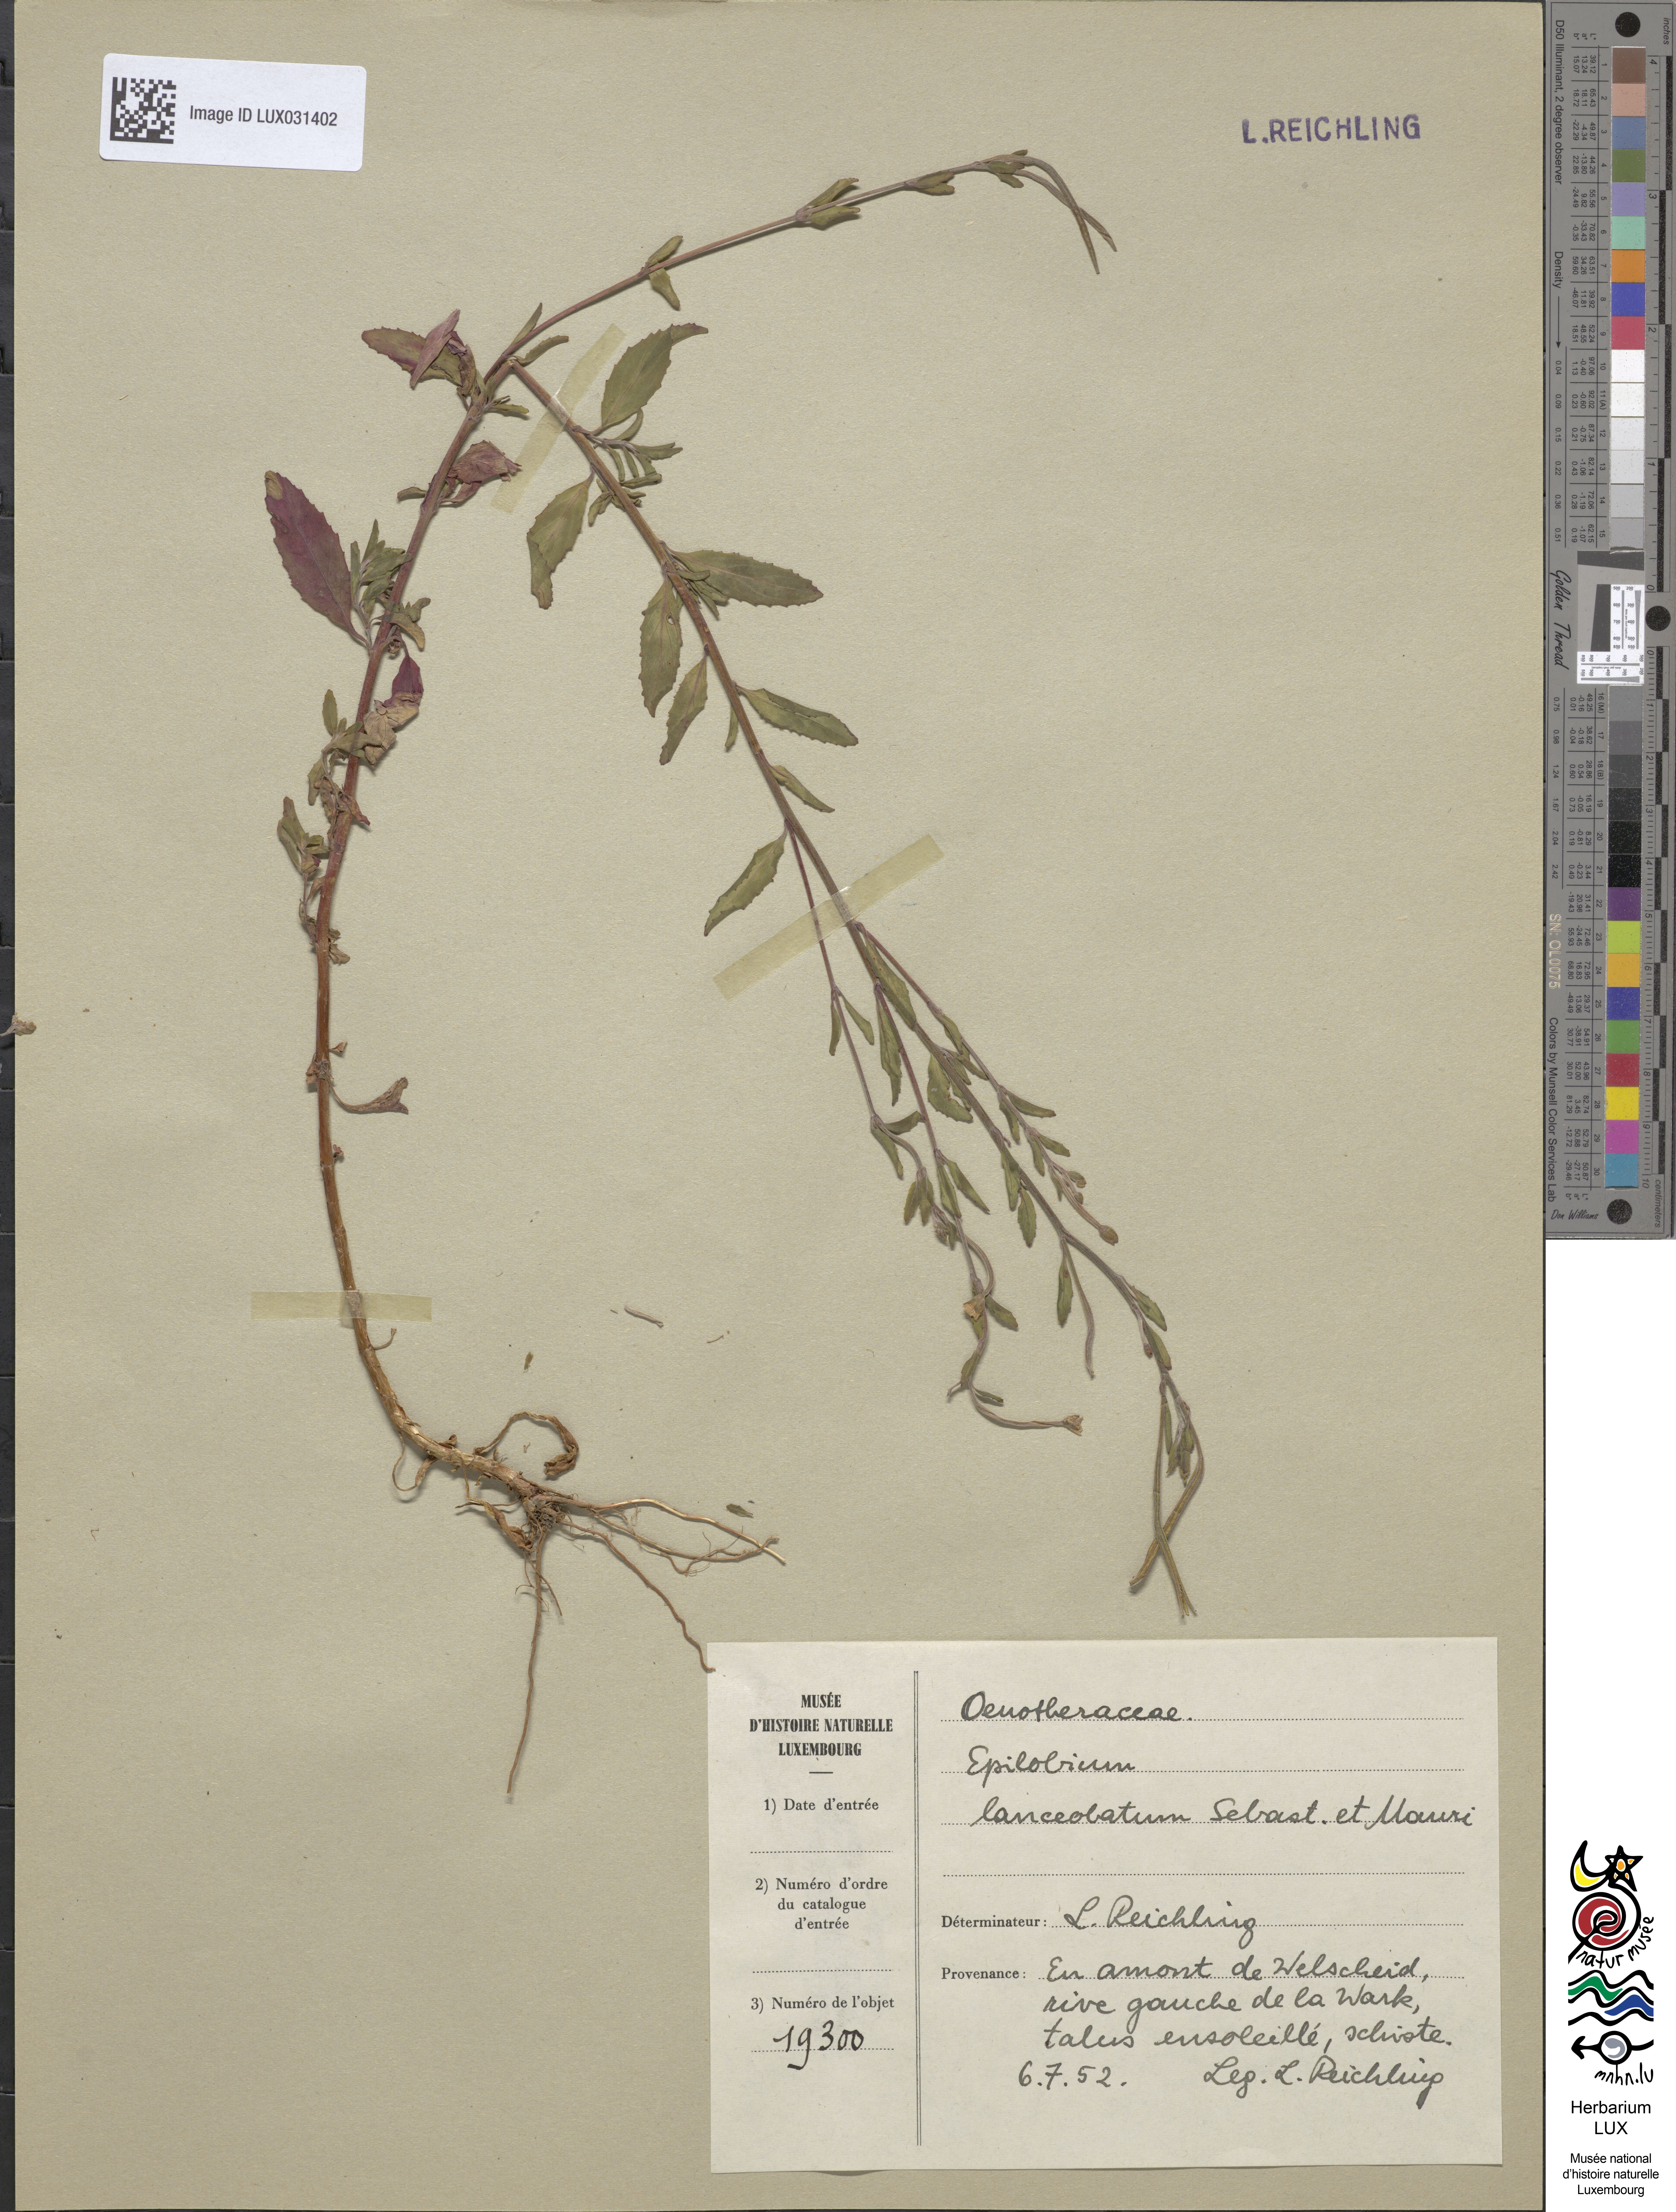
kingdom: Plantae
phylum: Tracheophyta
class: Magnoliopsida
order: Myrtales
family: Onagraceae
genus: Epilobium
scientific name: Epilobium lanceolatum
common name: Spear-leaved willowherb
